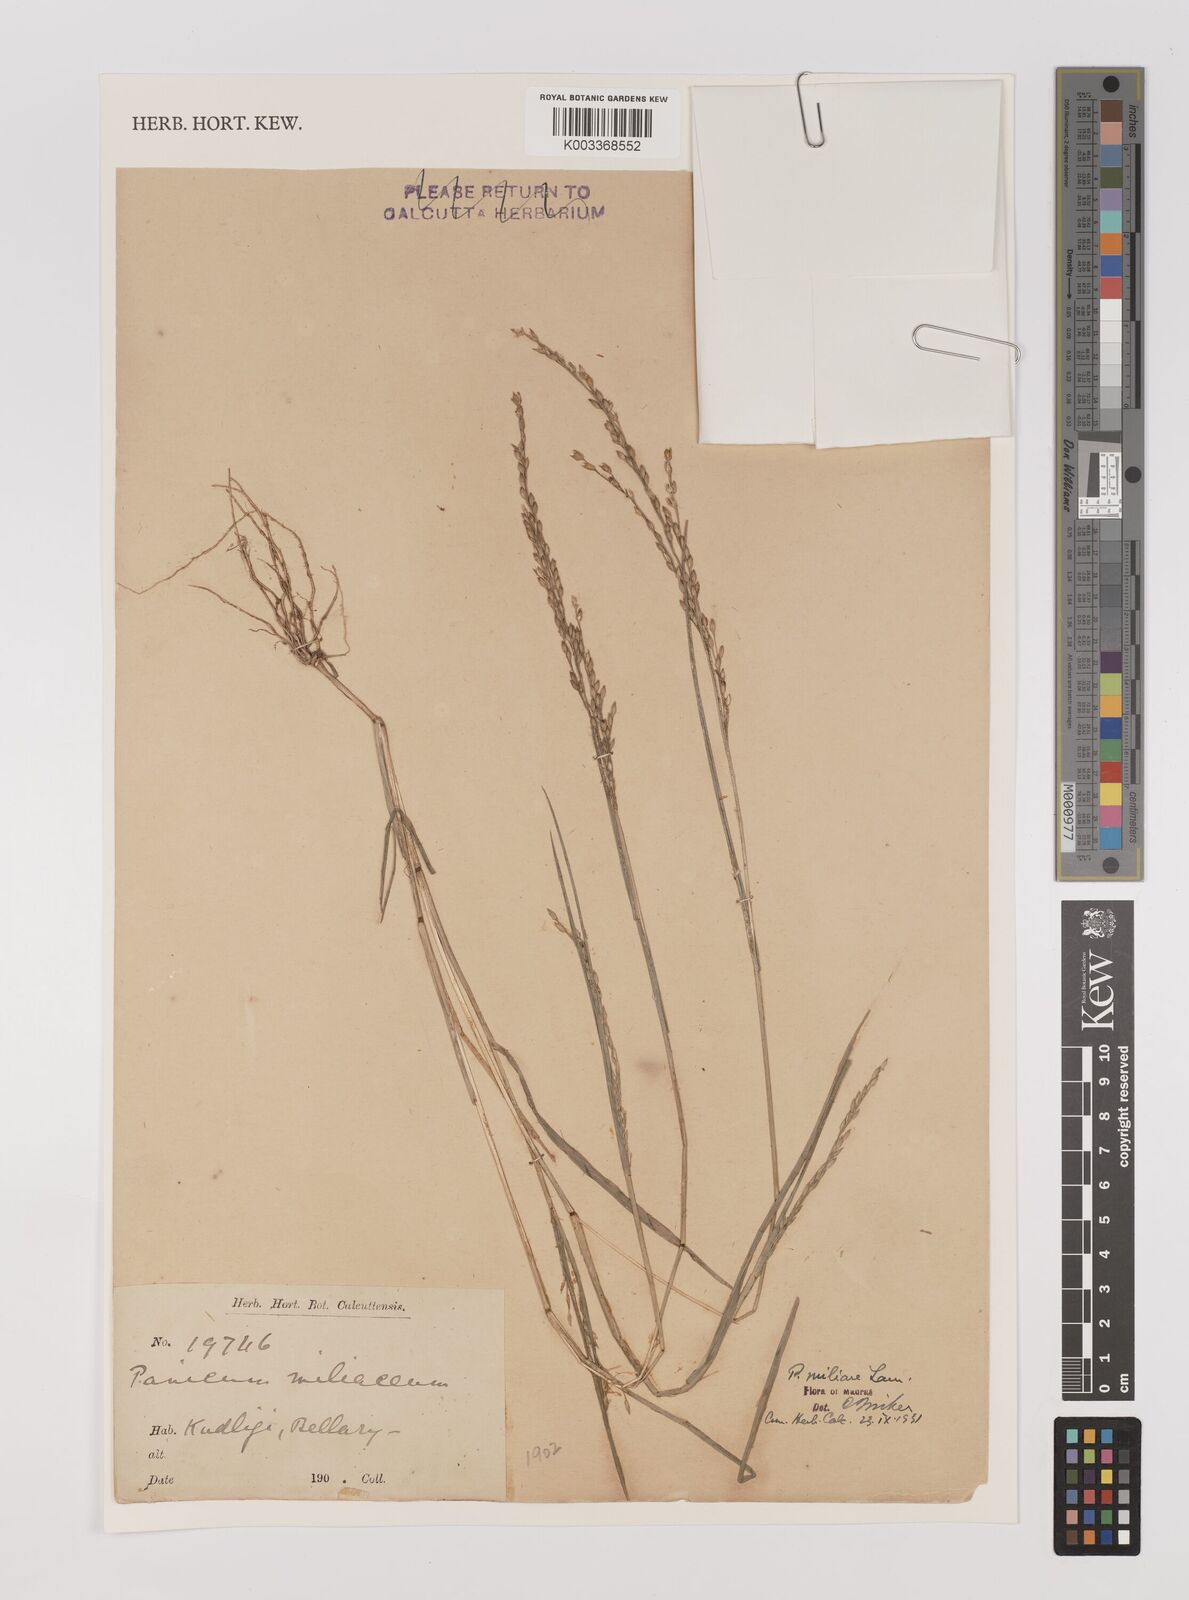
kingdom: Plantae
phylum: Tracheophyta
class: Liliopsida
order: Poales
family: Poaceae
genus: Panicum
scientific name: Panicum sumatrense
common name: Little millet
